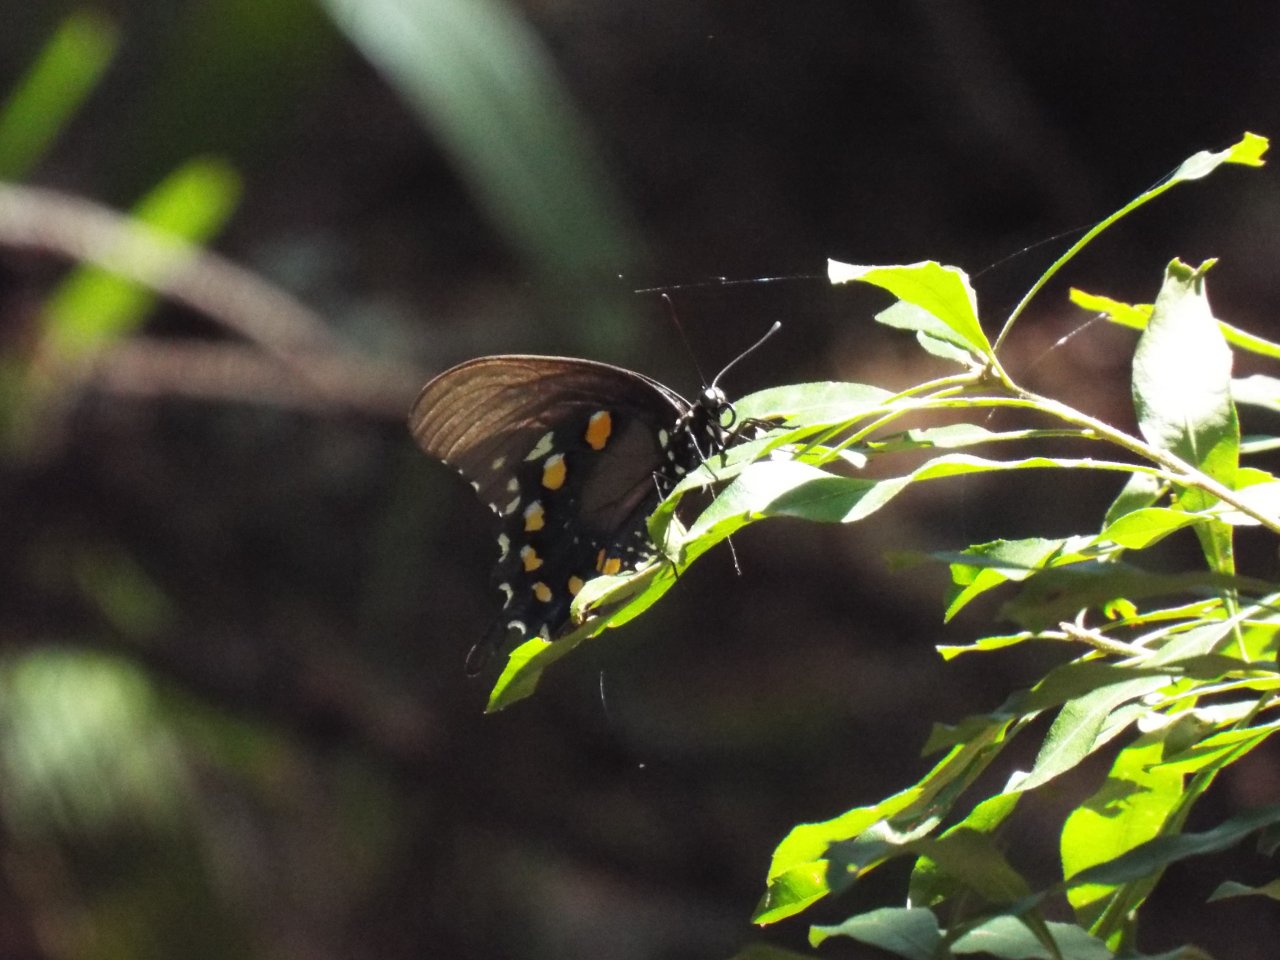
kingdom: Animalia
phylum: Arthropoda
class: Insecta
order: Lepidoptera
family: Papilionidae
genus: Battus
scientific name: Battus philenor
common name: Pipevine Swallowtail
